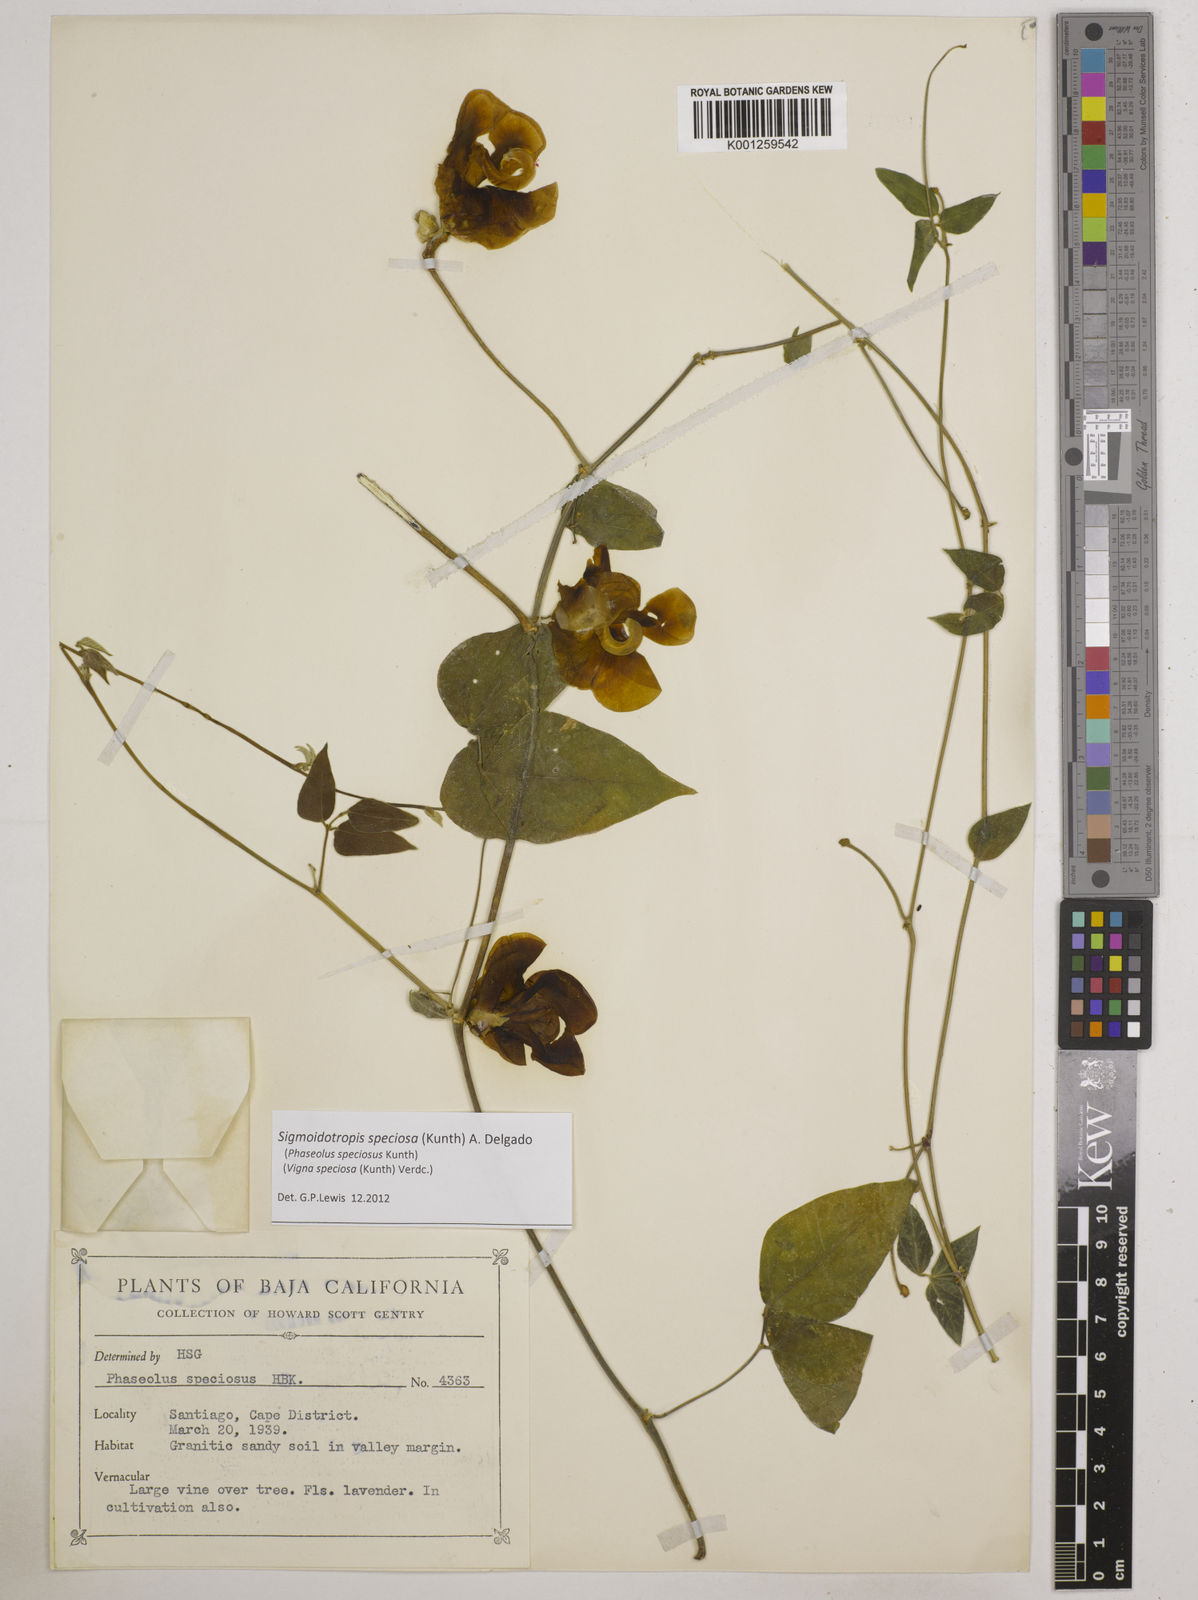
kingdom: Plantae
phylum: Tracheophyta
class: Magnoliopsida
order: Fabales
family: Fabaceae
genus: Sigmoidotropis
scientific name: Sigmoidotropis speciosa
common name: Snail flower
